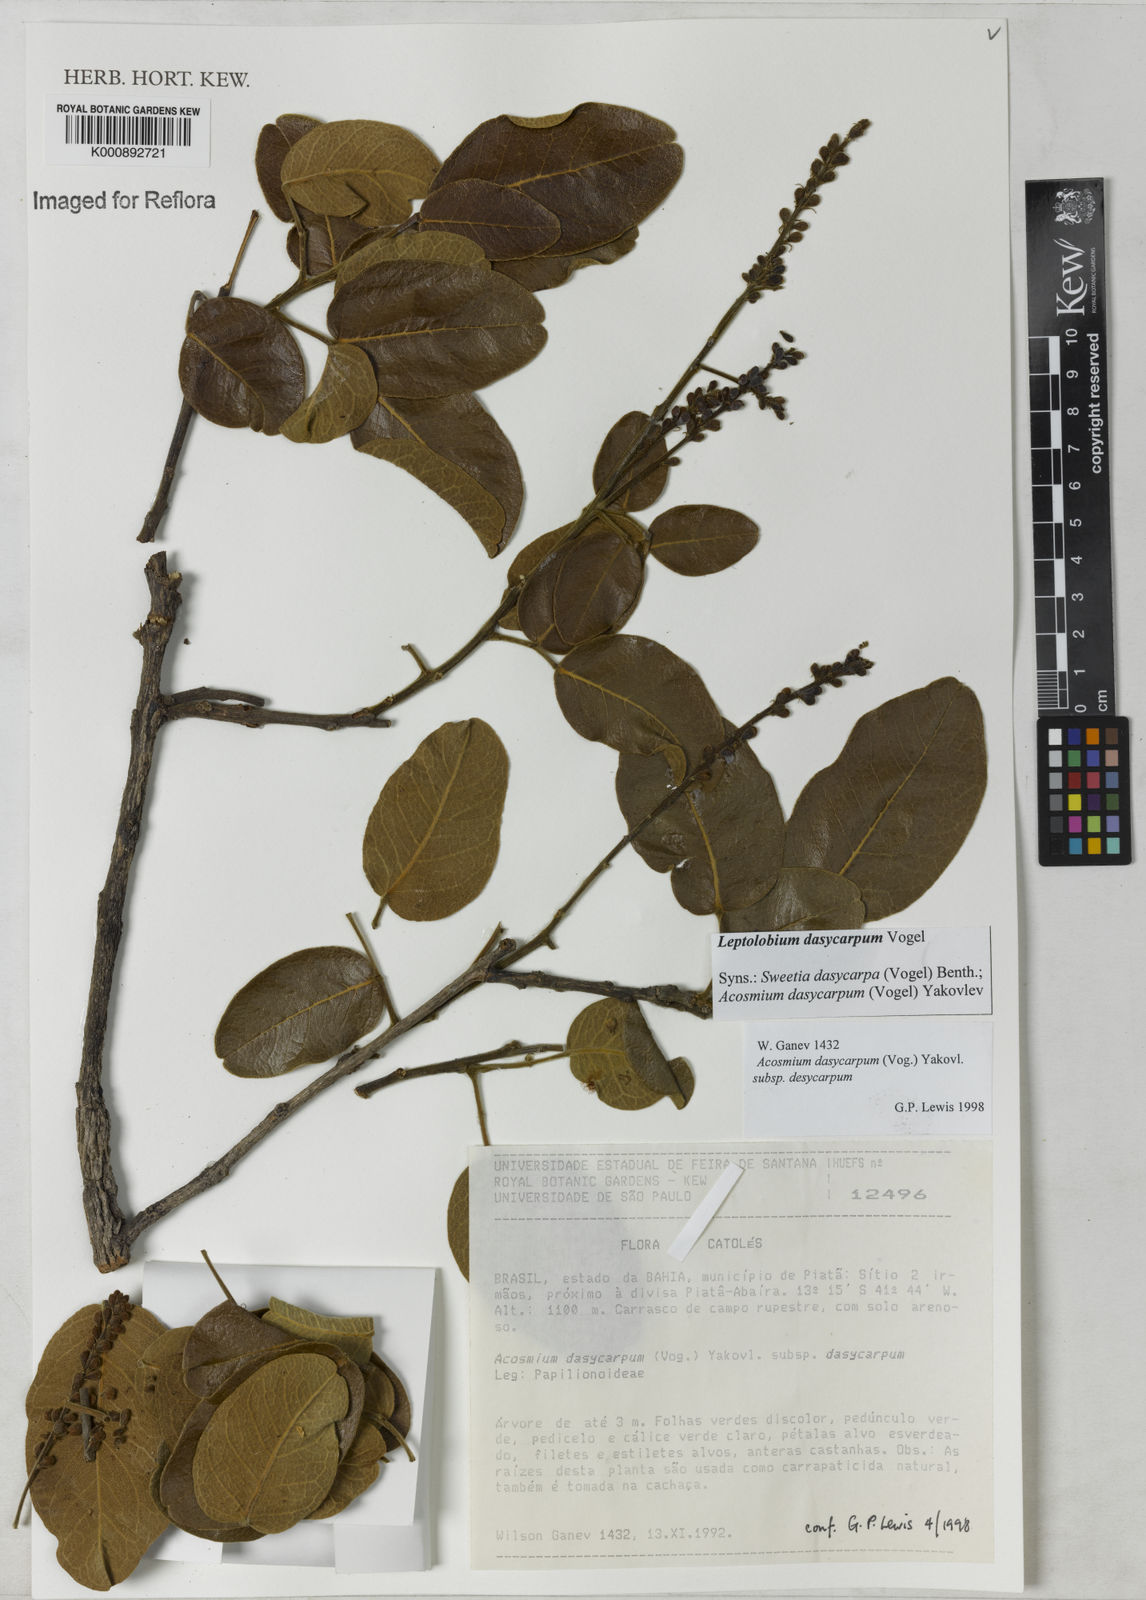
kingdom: Plantae
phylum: Tracheophyta
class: Magnoliopsida
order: Fabales
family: Fabaceae
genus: Leptolobium
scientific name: Leptolobium
